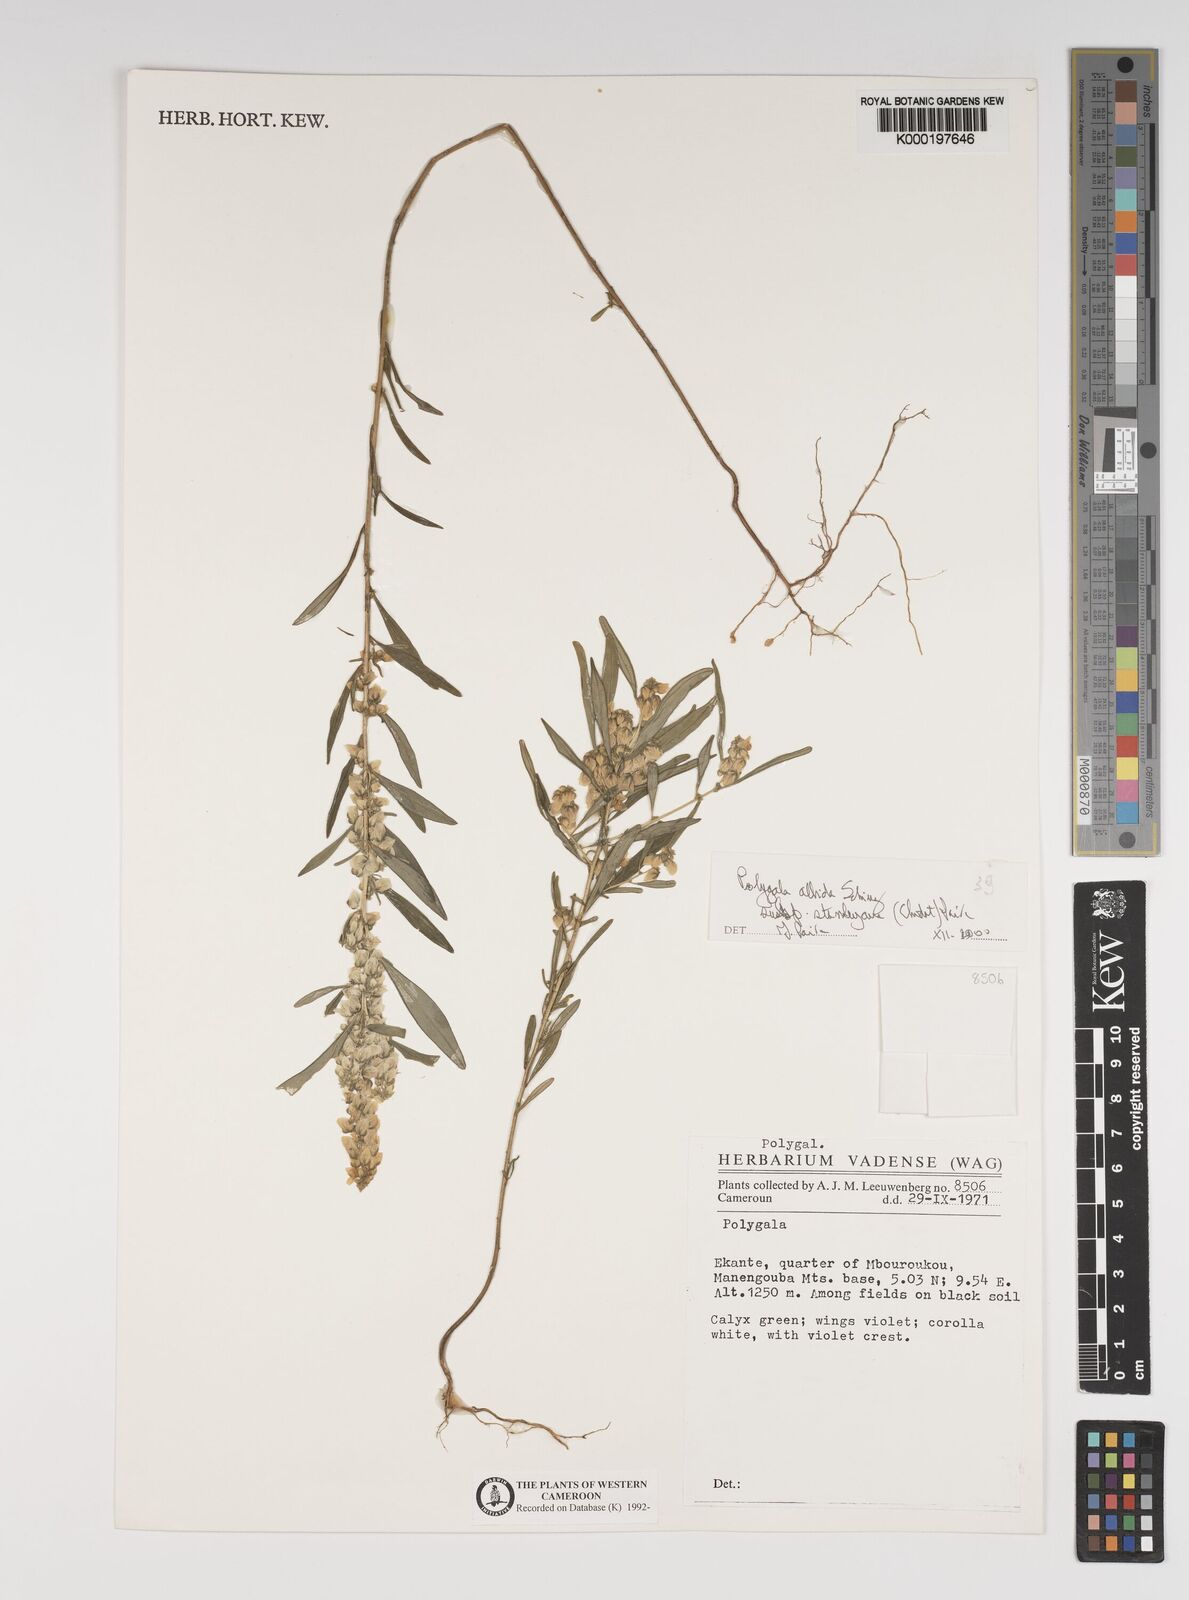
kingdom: Plantae
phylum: Tracheophyta
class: Magnoliopsida
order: Fabales
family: Polygalaceae
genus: Polygala
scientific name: Polygala albida
